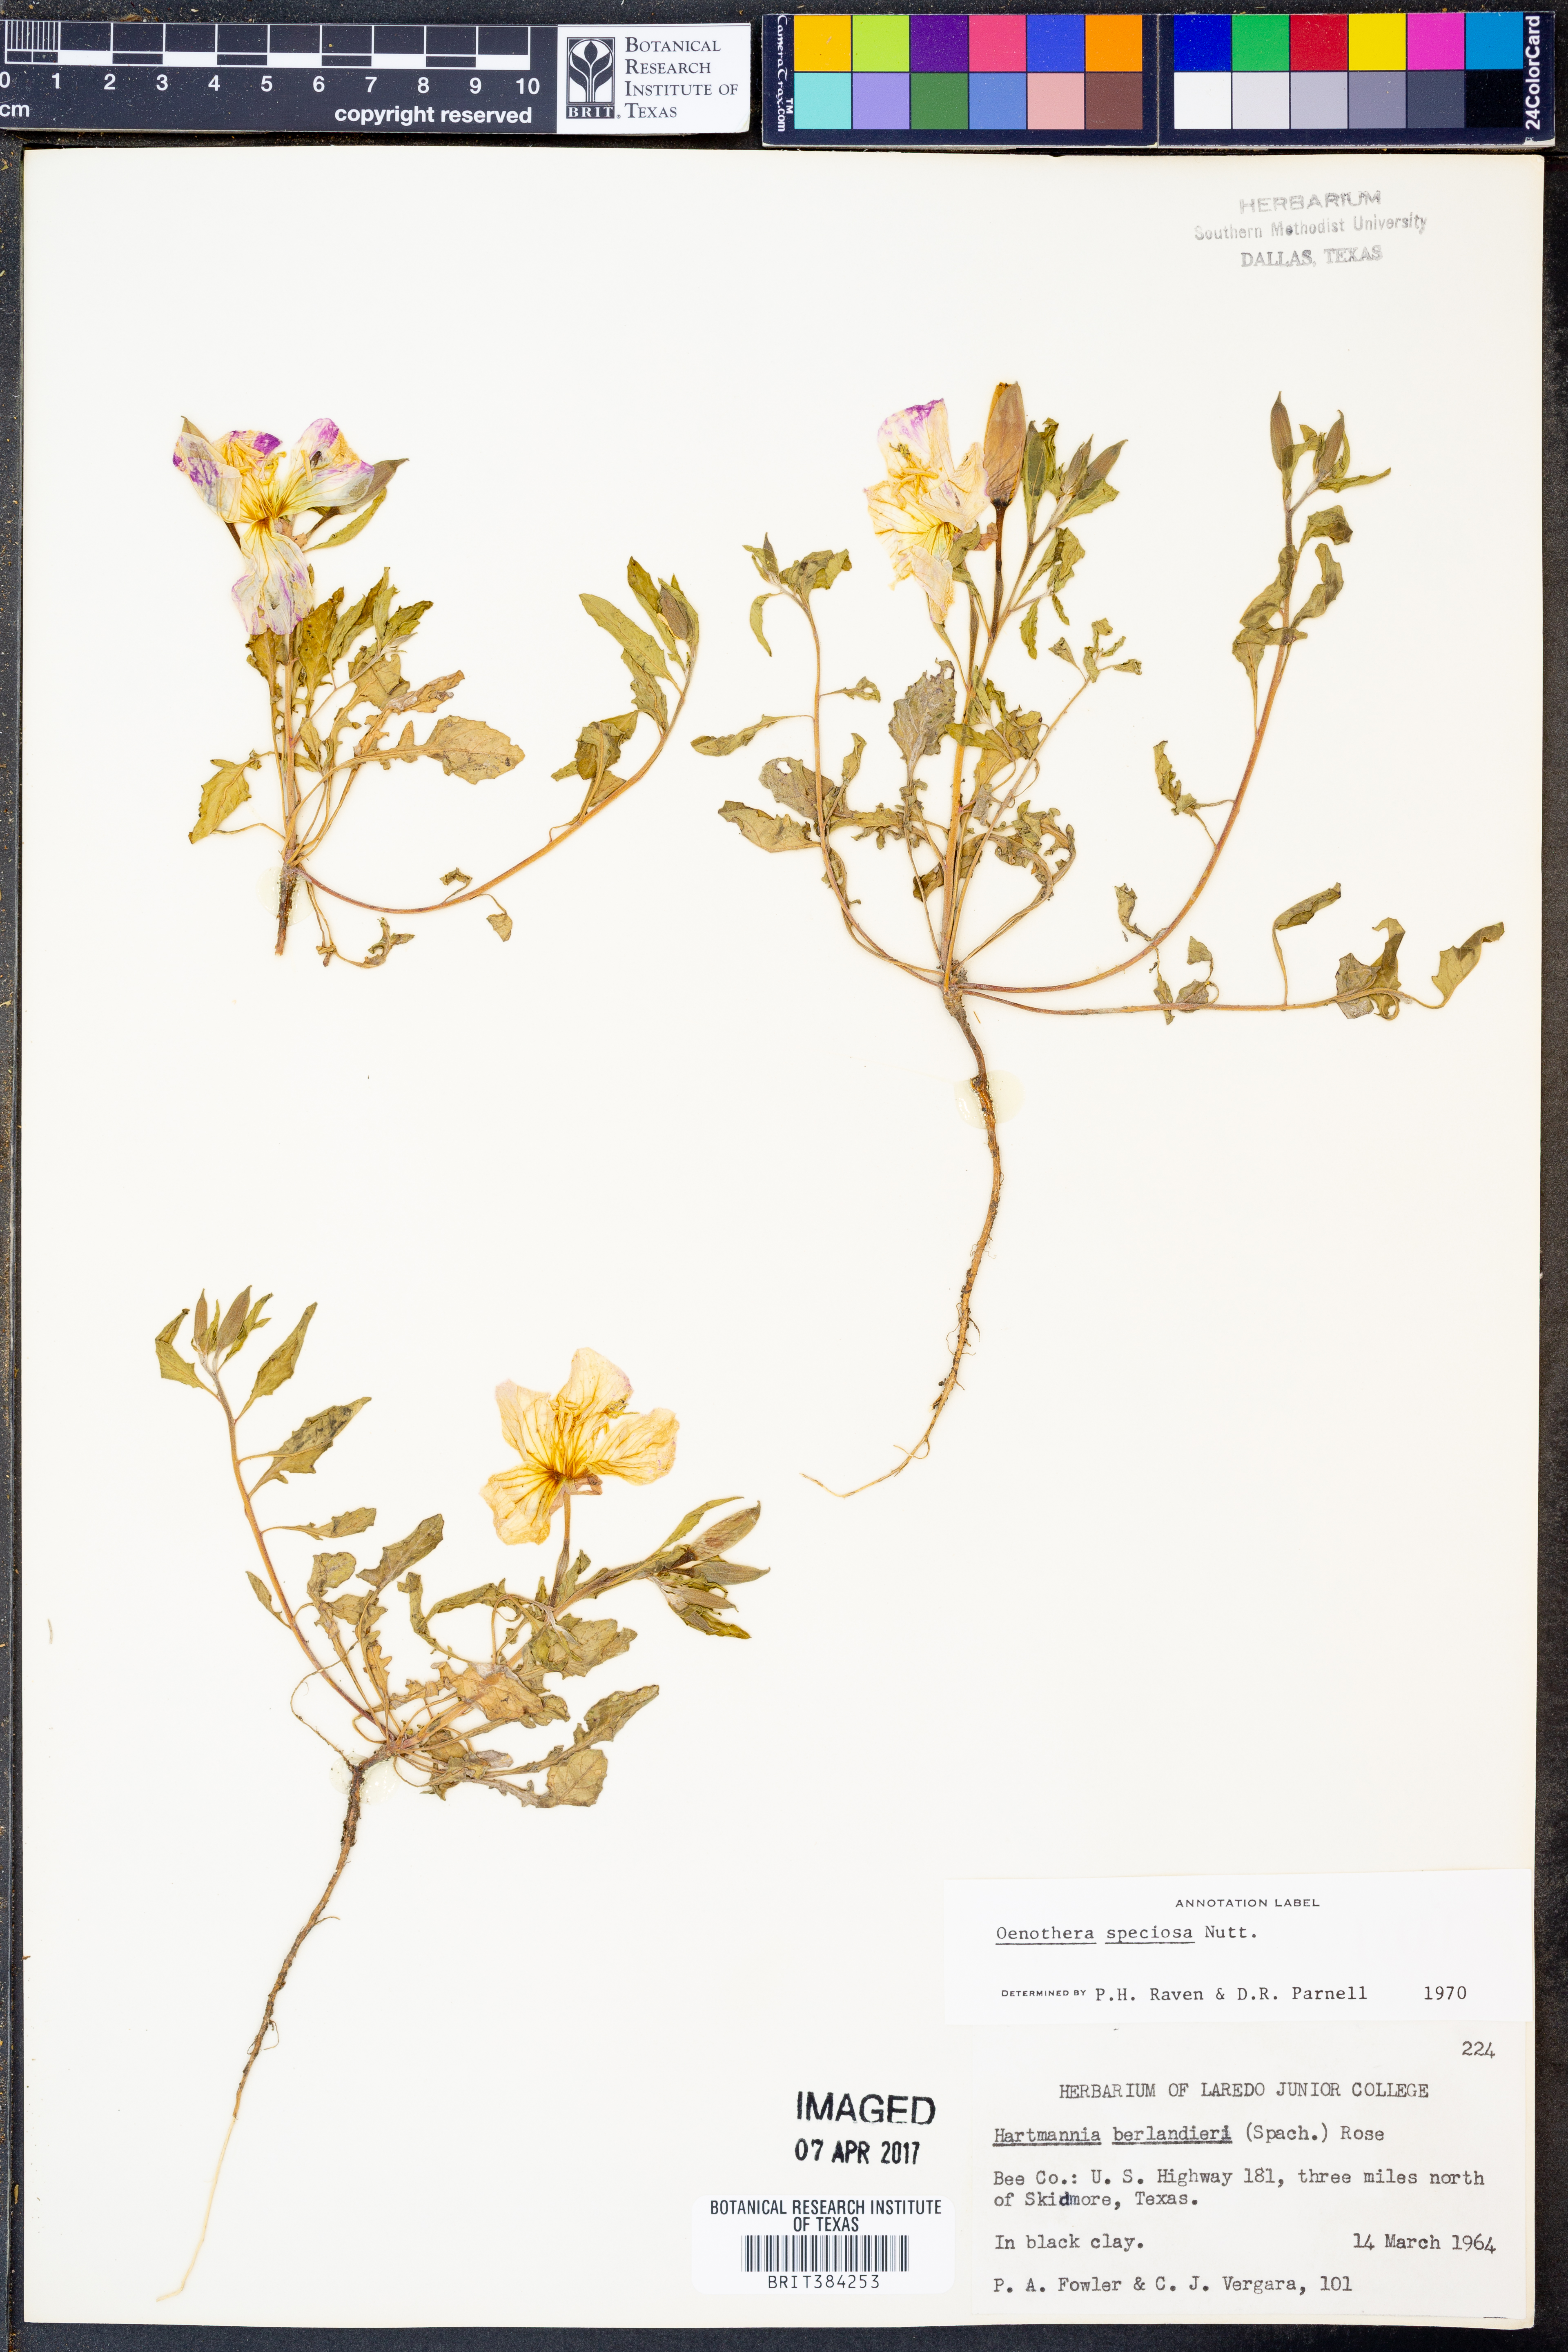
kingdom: Plantae
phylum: Tracheophyta
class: Magnoliopsida
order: Myrtales
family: Onagraceae
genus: Oenothera
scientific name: Oenothera speciosa
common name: White evening-primrose
